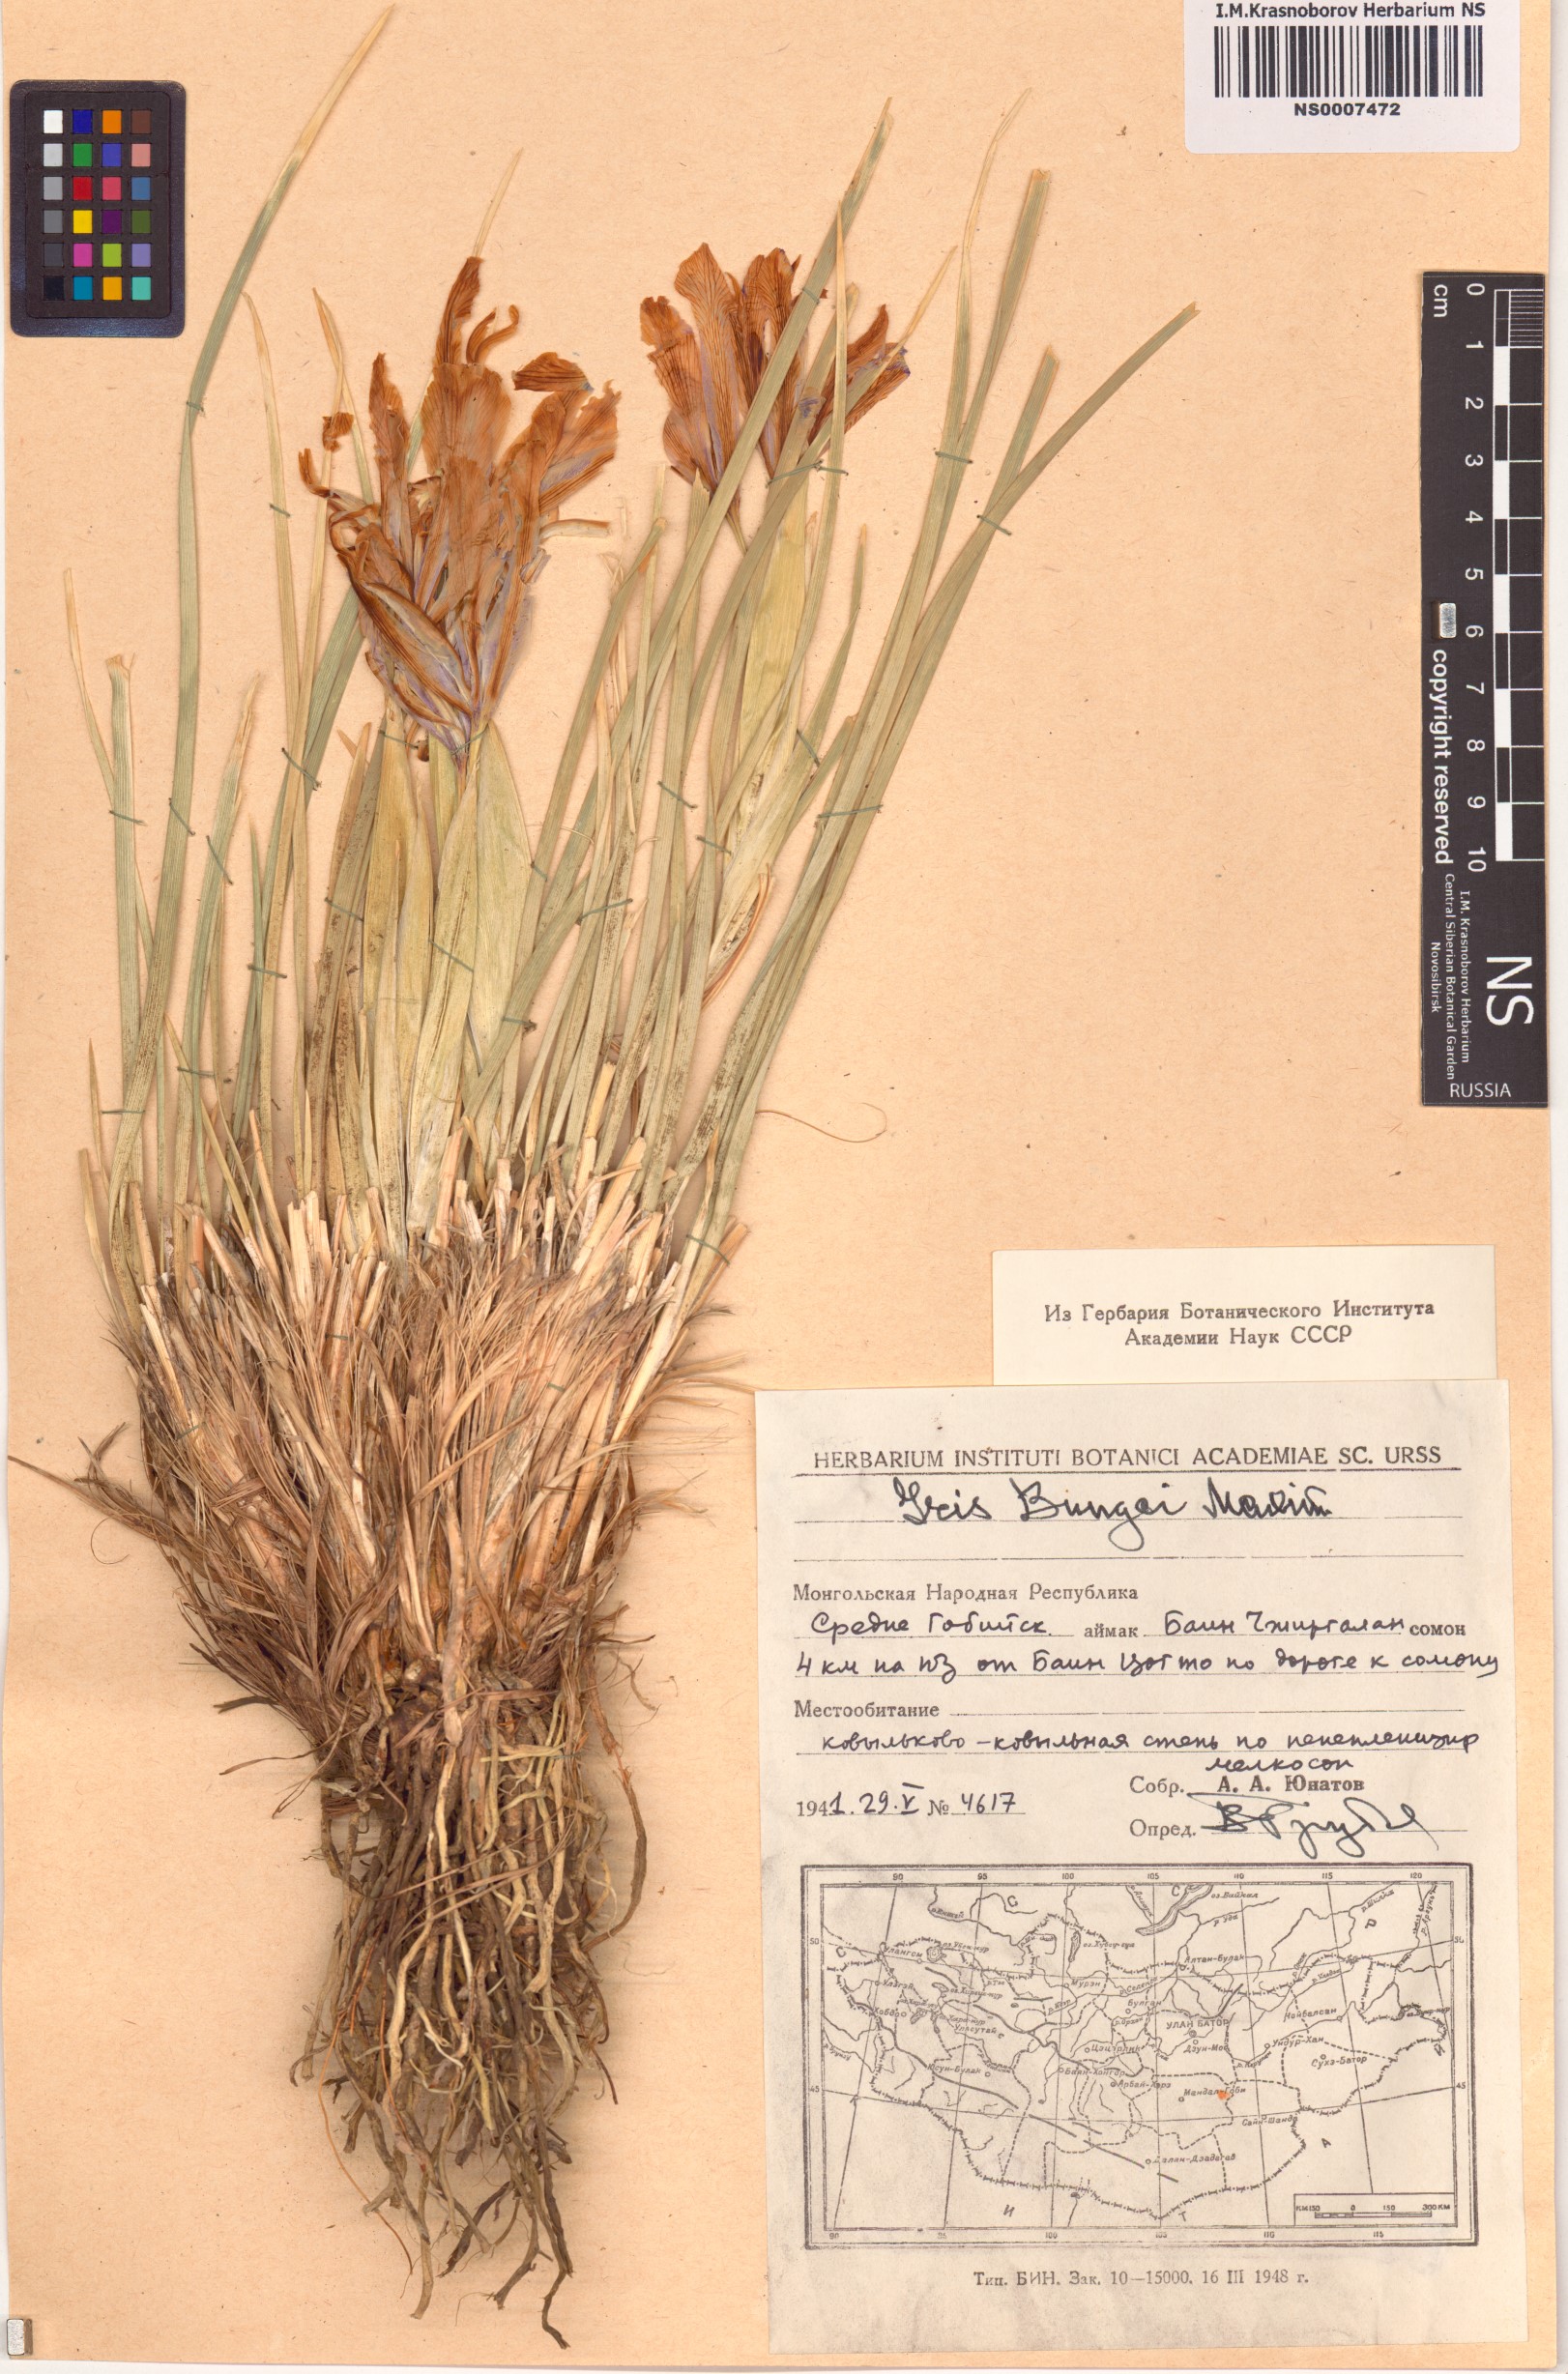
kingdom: Plantae
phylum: Tracheophyta
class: Liliopsida
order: Asparagales
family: Iridaceae
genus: Iris
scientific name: Iris bungei
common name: Large-bract iris
